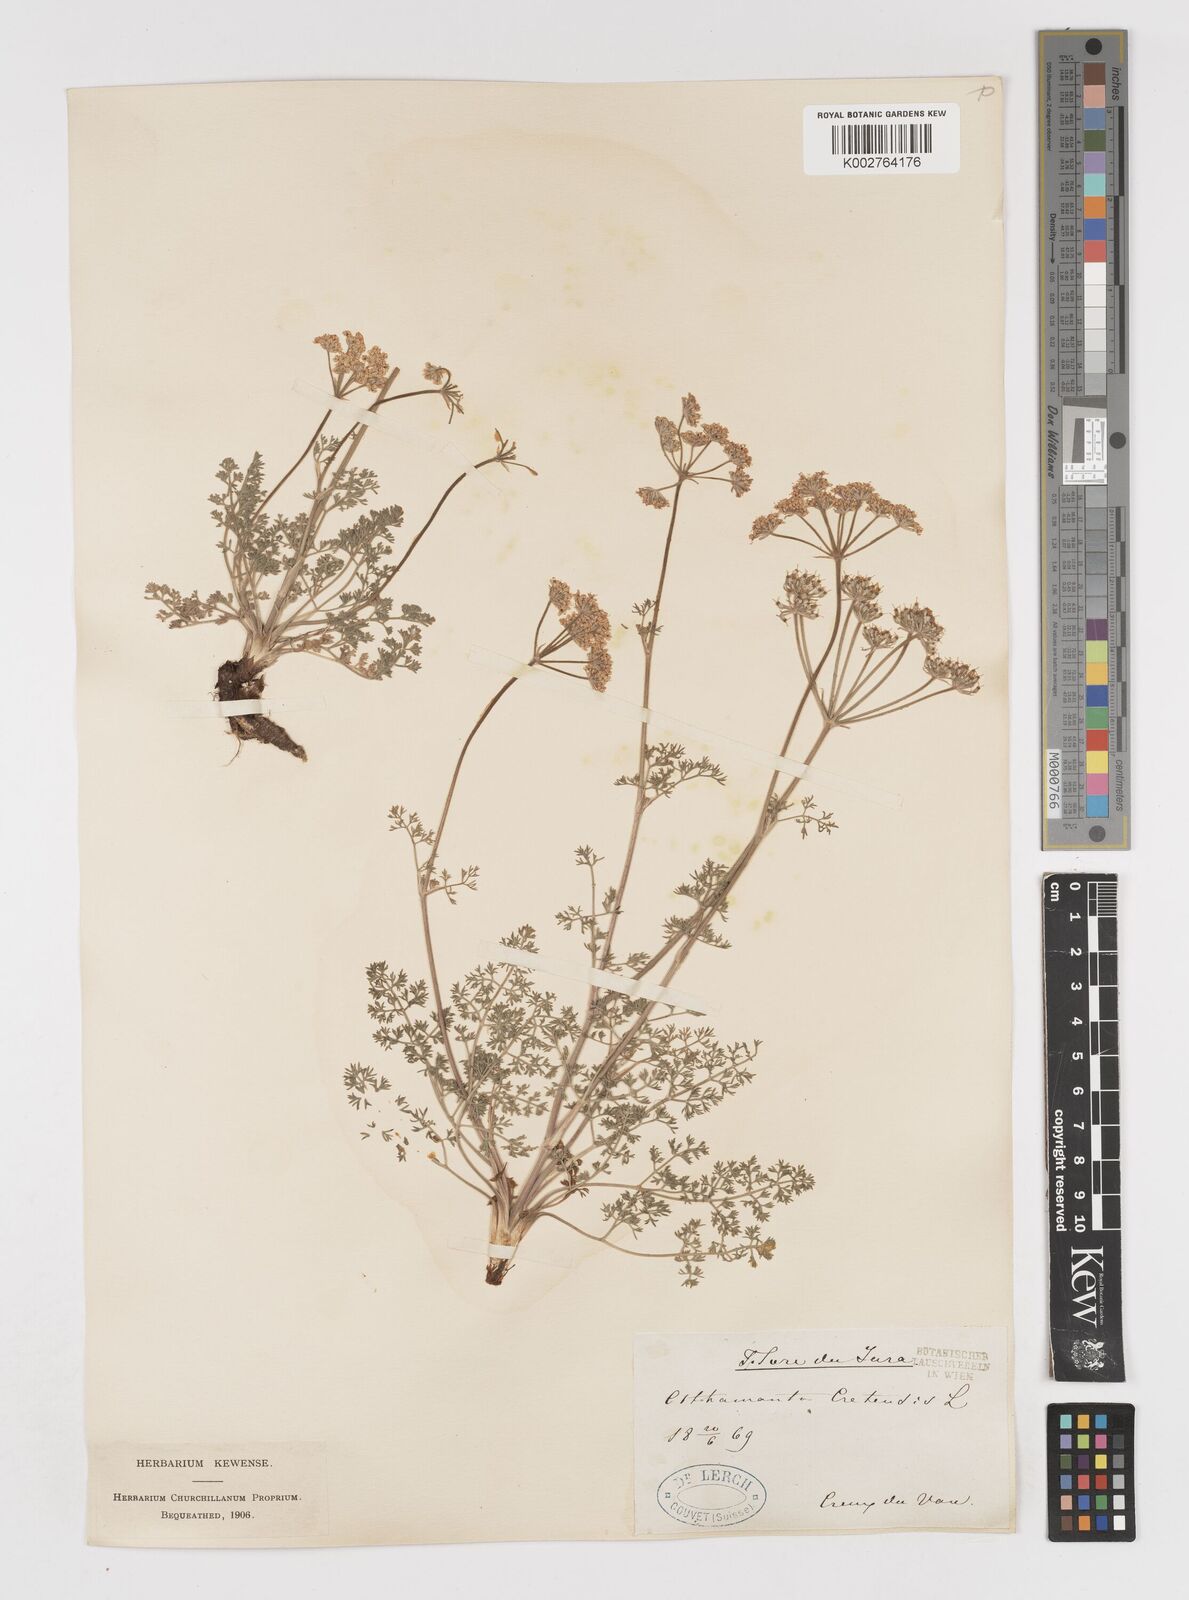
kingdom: Plantae
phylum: Tracheophyta
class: Magnoliopsida
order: Apiales
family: Apiaceae
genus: Athamanta
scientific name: Athamanta cretensis
